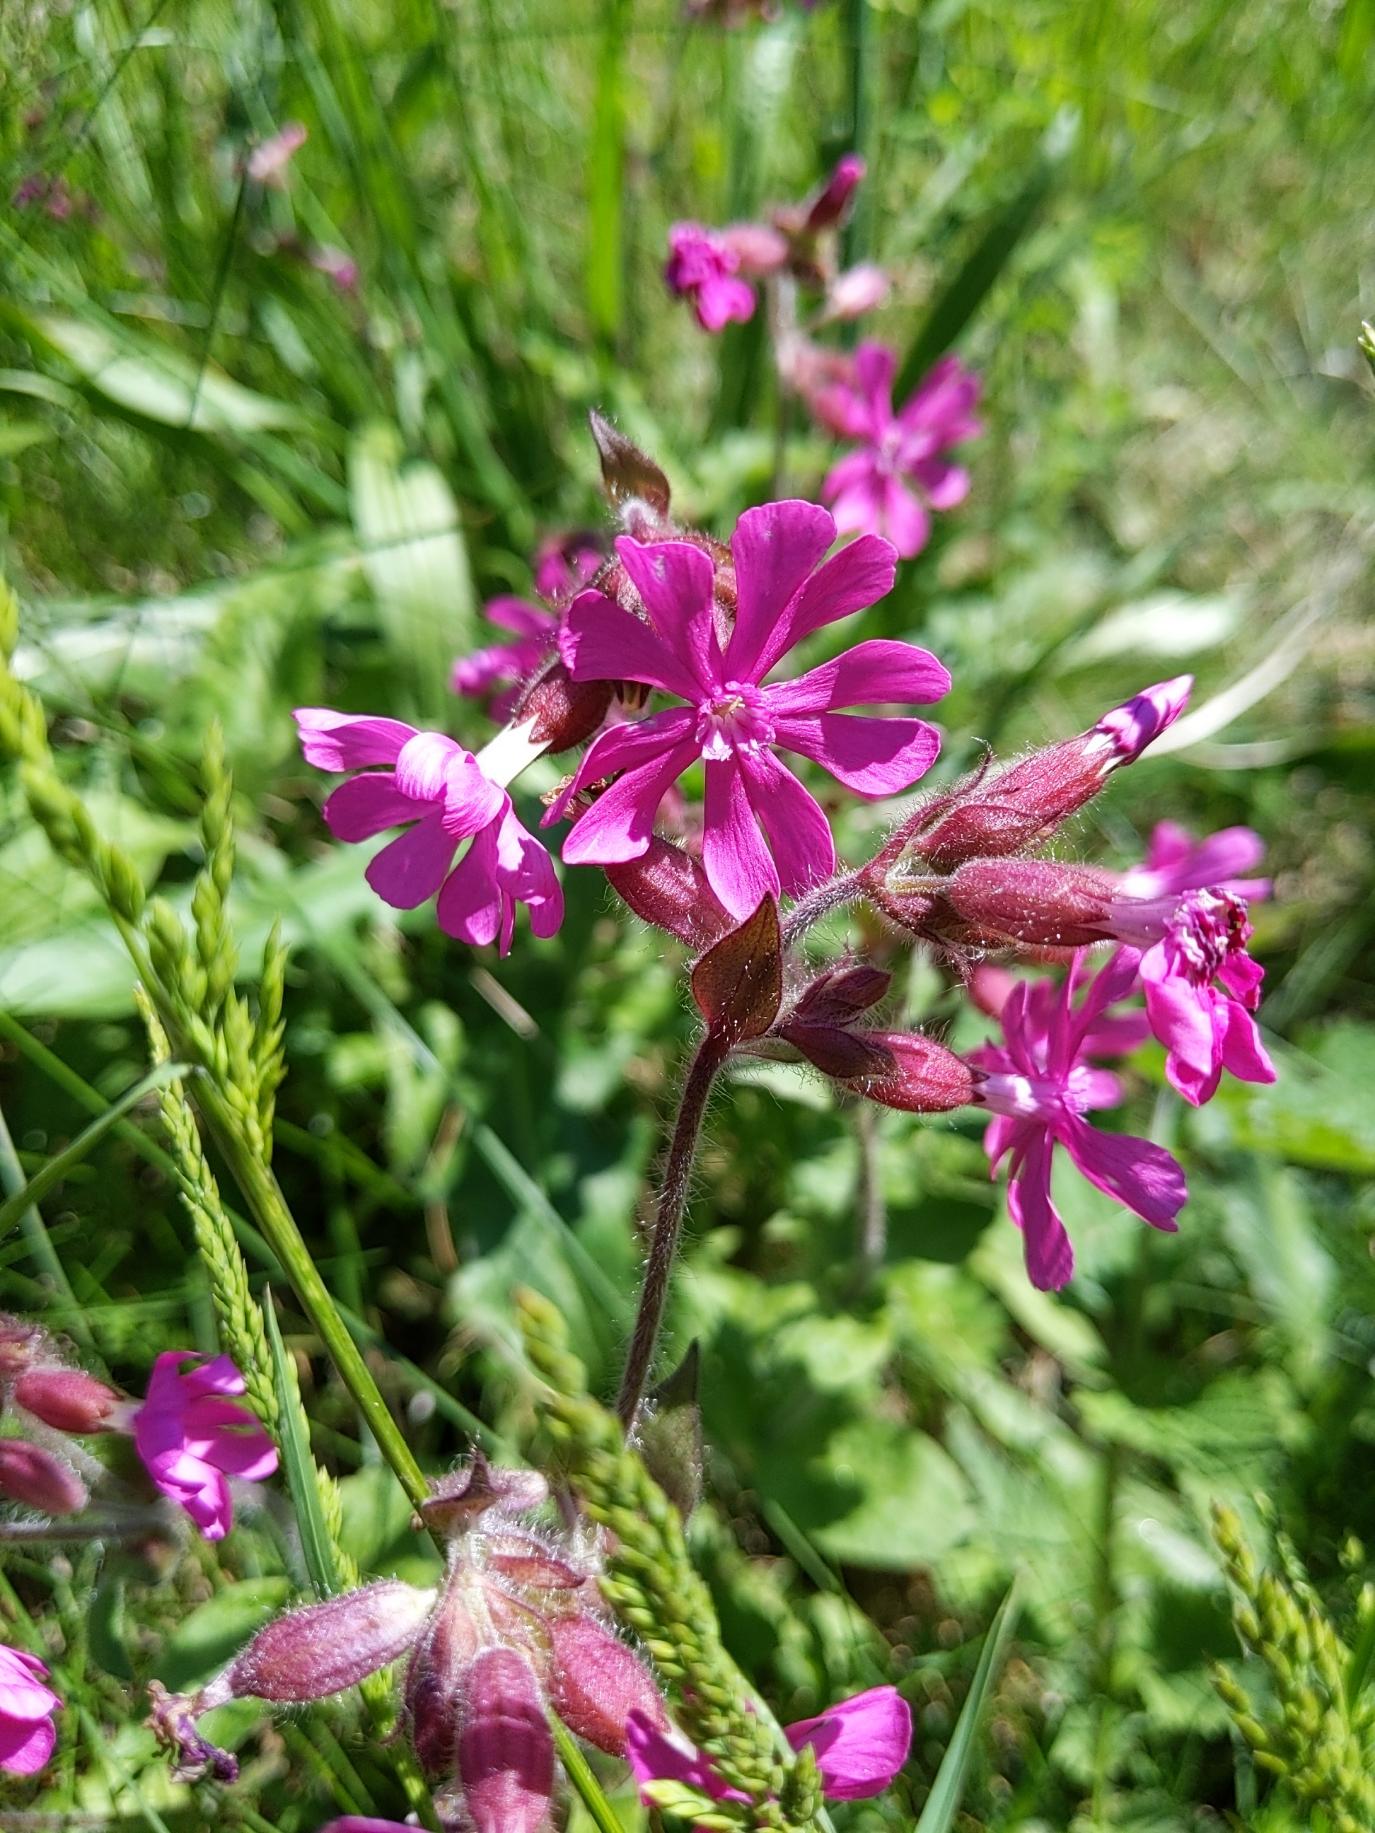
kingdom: Plantae
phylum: Tracheophyta
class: Magnoliopsida
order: Caryophyllales
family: Caryophyllaceae
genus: Silene
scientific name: Silene dioica
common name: Dagpragtstjerne
